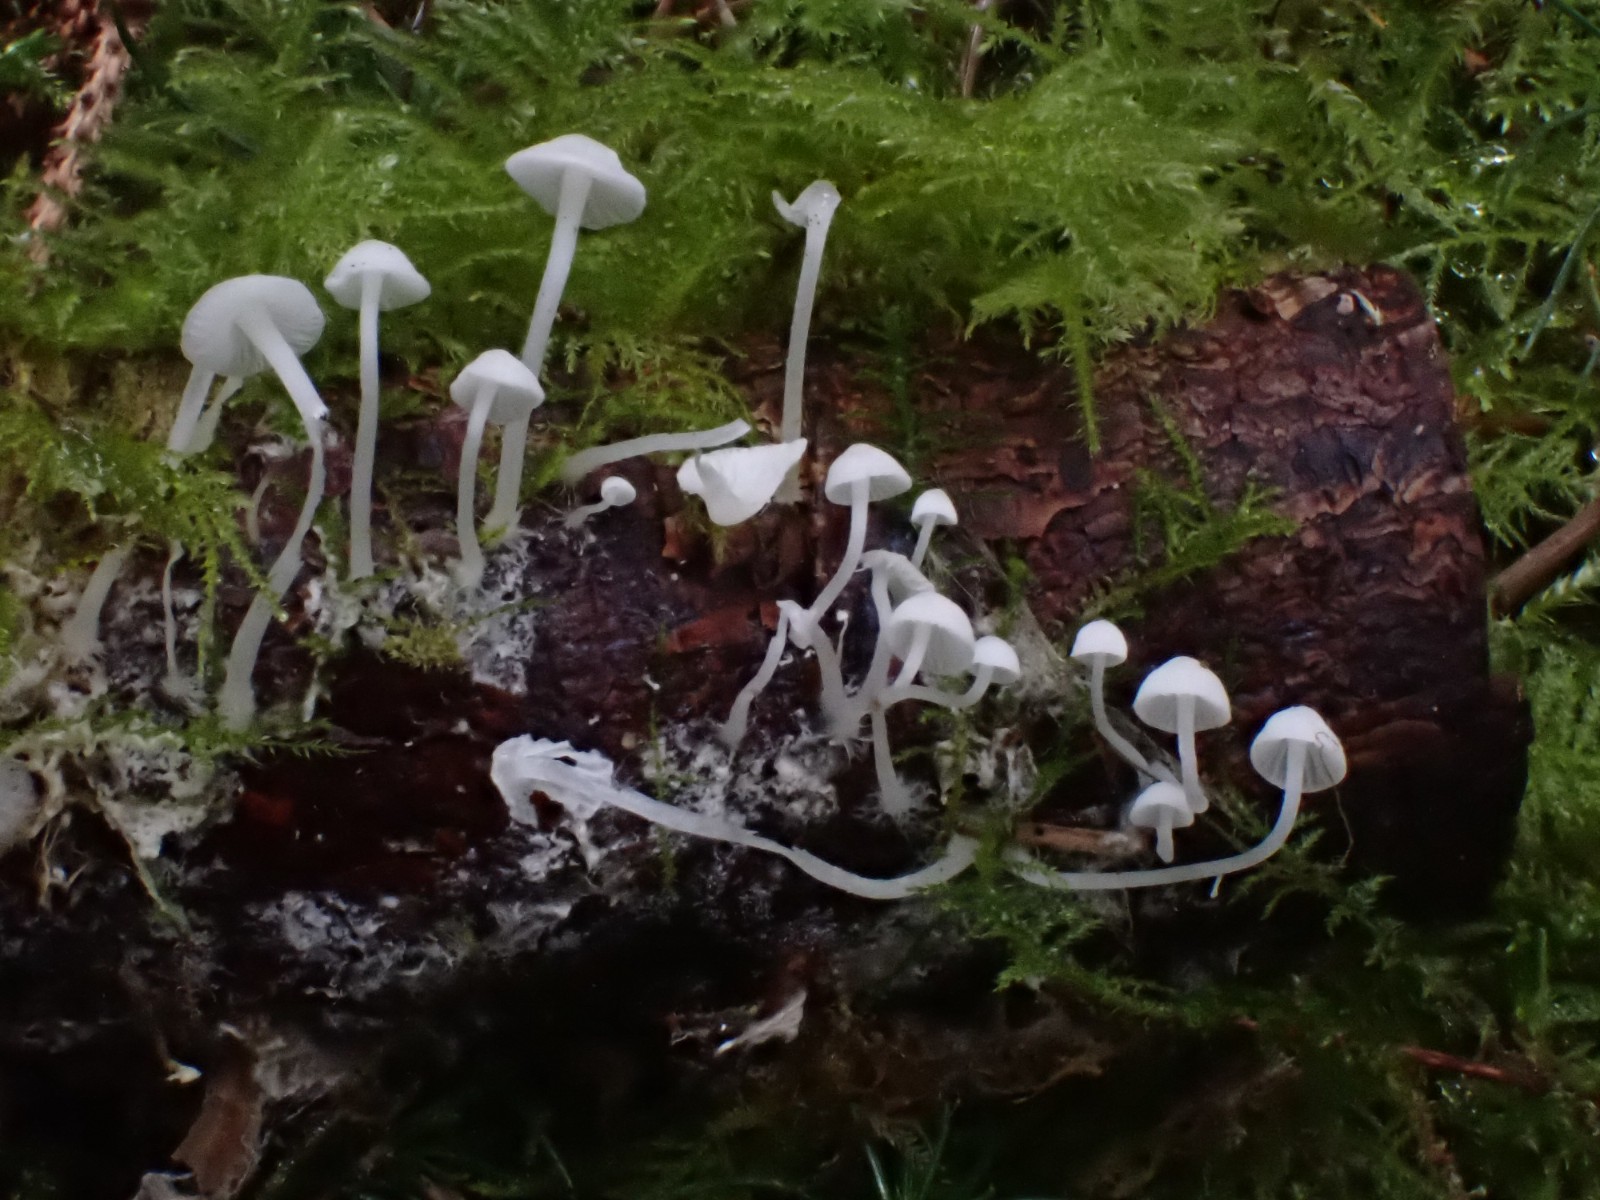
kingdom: Fungi
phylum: Basidiomycota
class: Agaricomycetes
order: Agaricales
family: Mycenaceae
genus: Hemimycena
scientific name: Hemimycena lactea
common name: mælkehvid huesvamp
